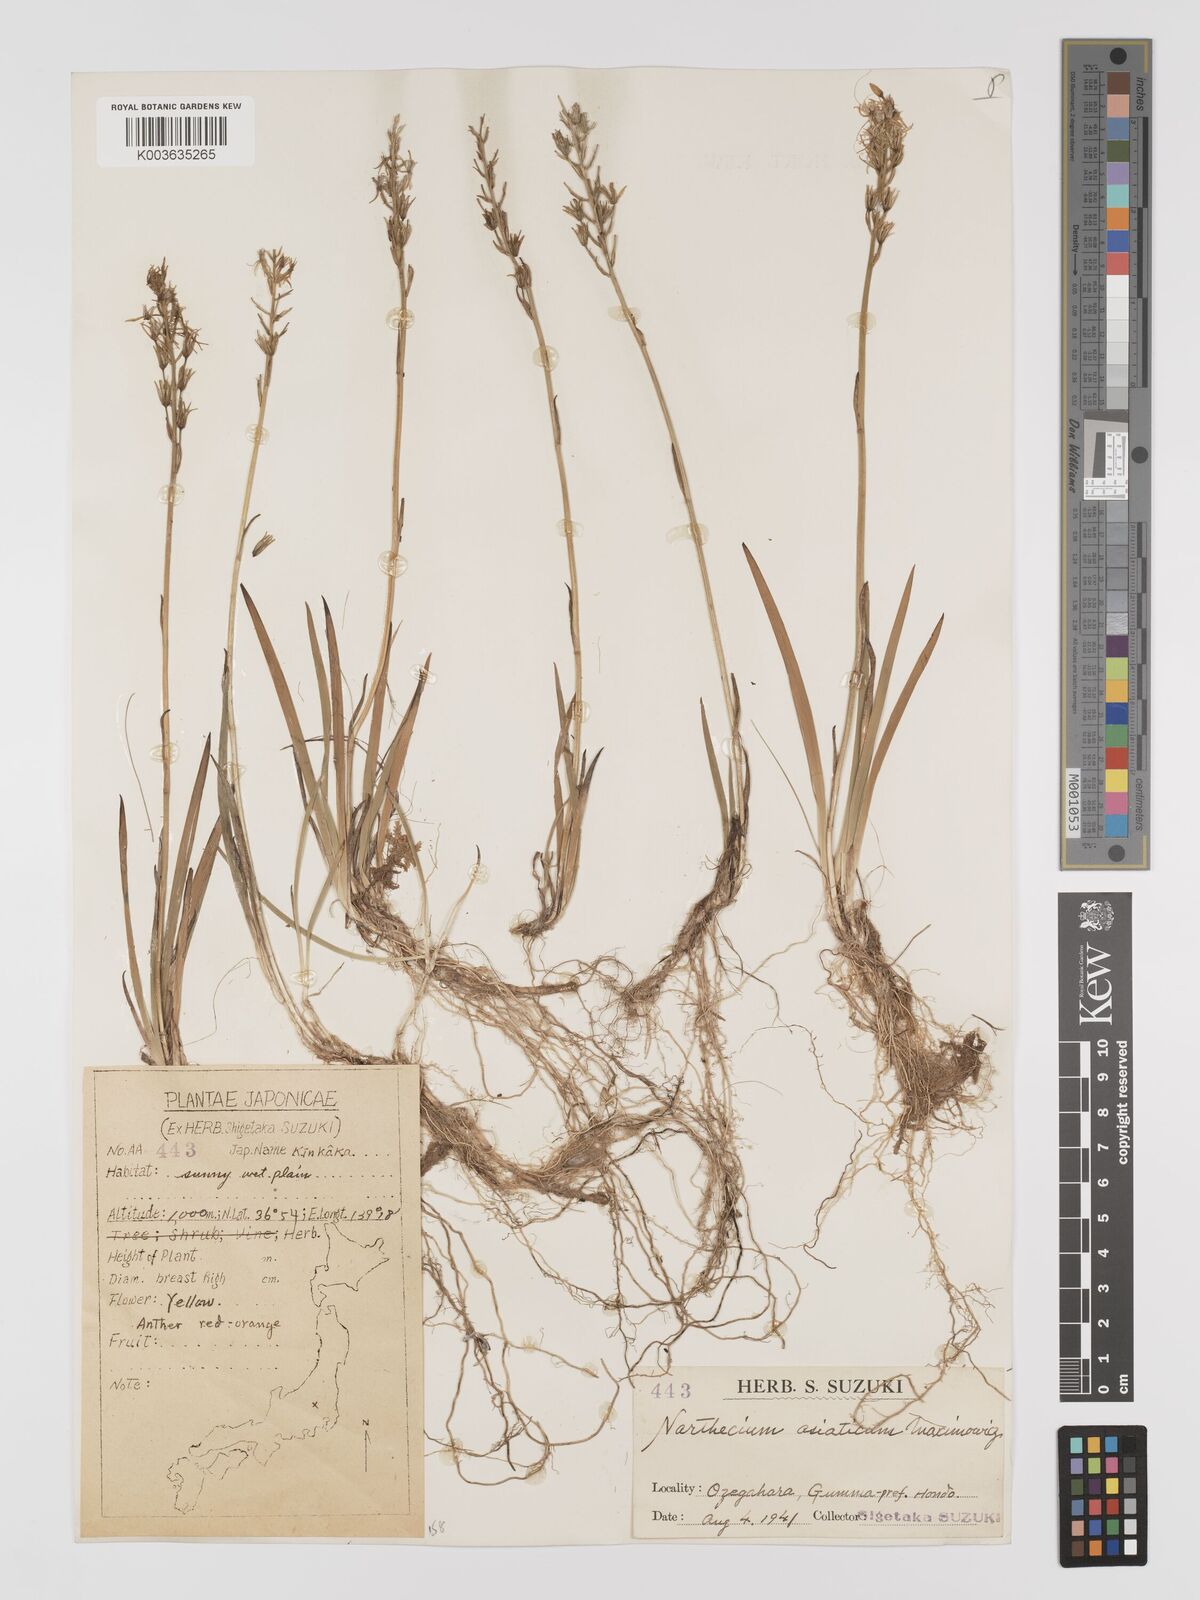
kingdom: Plantae
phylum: Tracheophyta
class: Liliopsida
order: Dioscoreales
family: Nartheciaceae
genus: Narthecium
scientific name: Narthecium asiaticum
